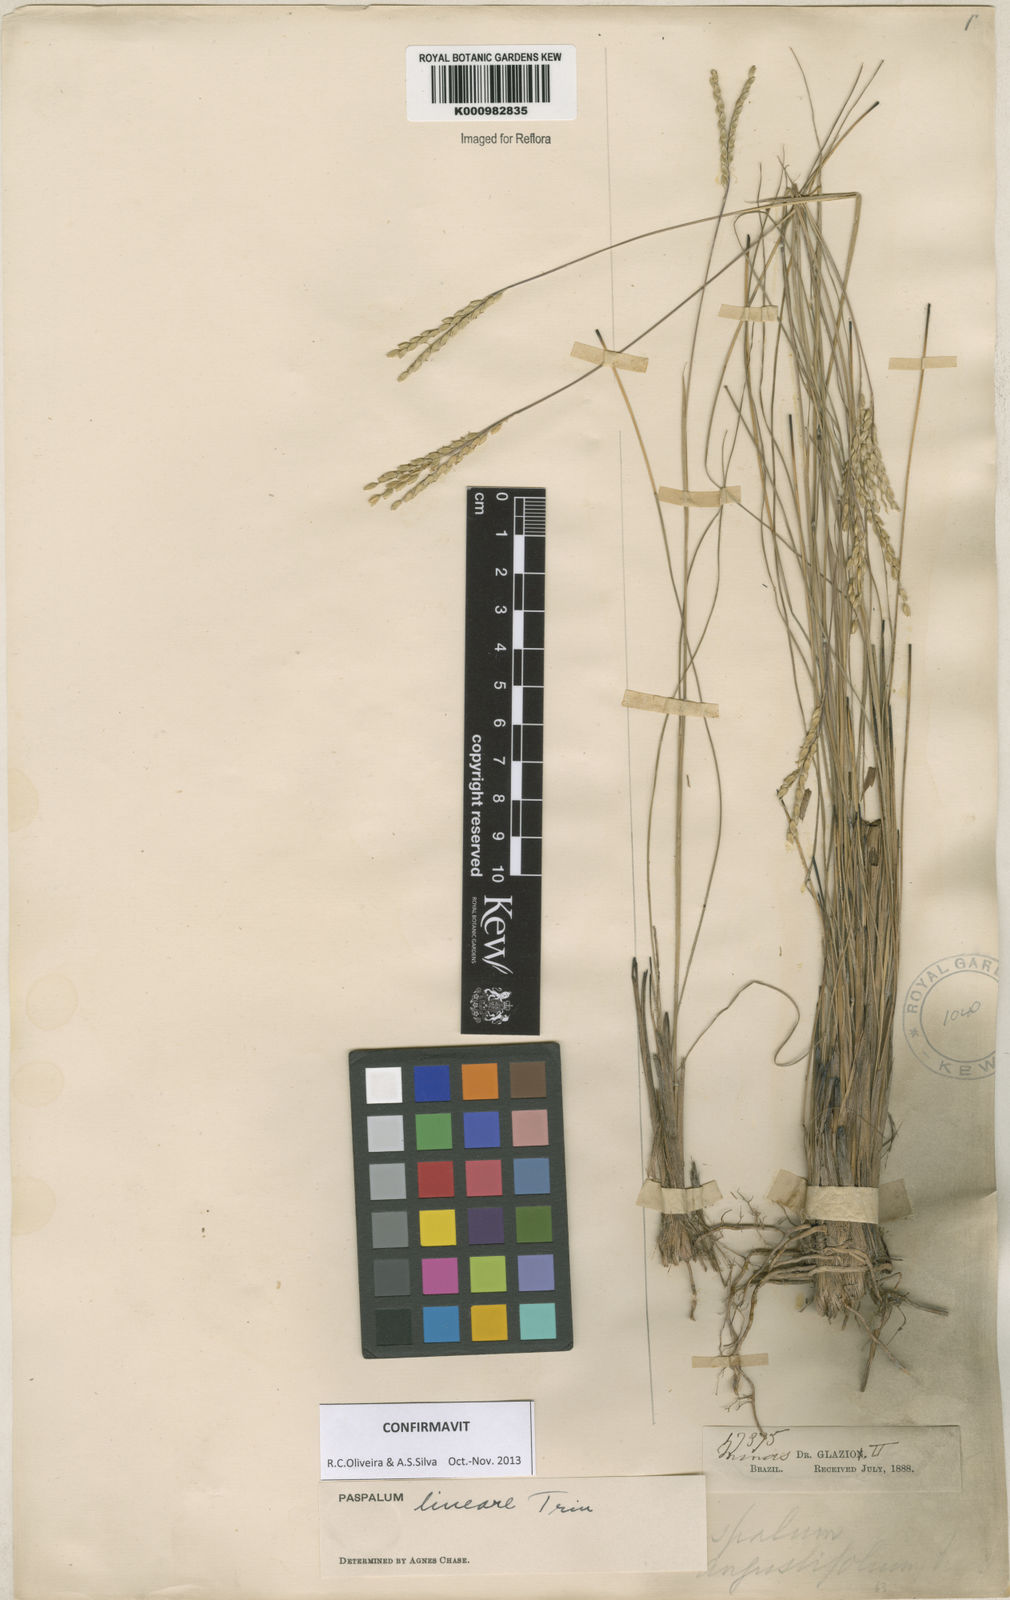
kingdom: Plantae
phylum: Tracheophyta
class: Liliopsida
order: Poales
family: Poaceae
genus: Paspalum
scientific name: Paspalum lineare
